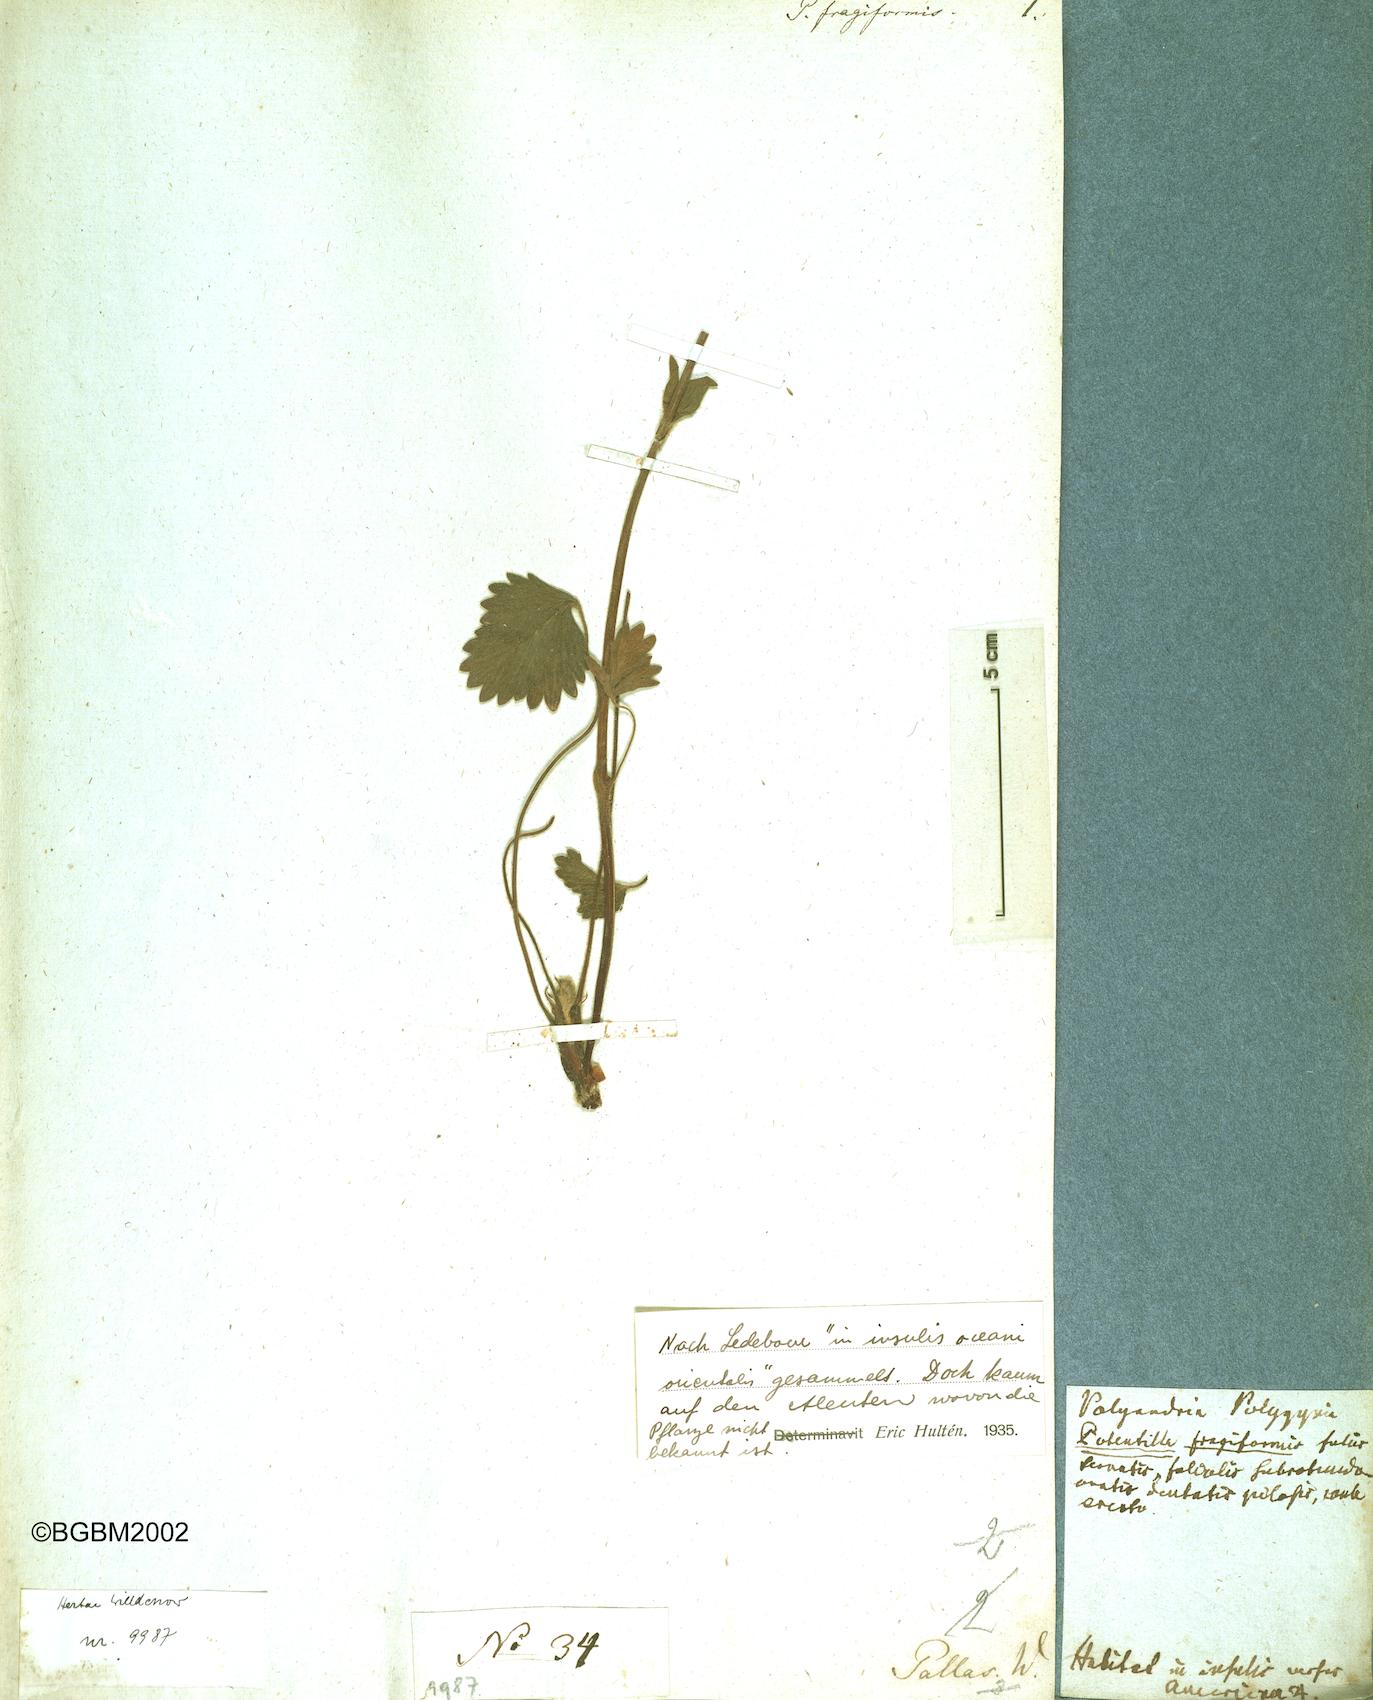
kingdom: Plantae
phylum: Tracheophyta
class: Magnoliopsida
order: Rosales
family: Rosaceae
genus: Potentilla
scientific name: Potentilla fragiformis
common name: Strawberry cinquefoil
